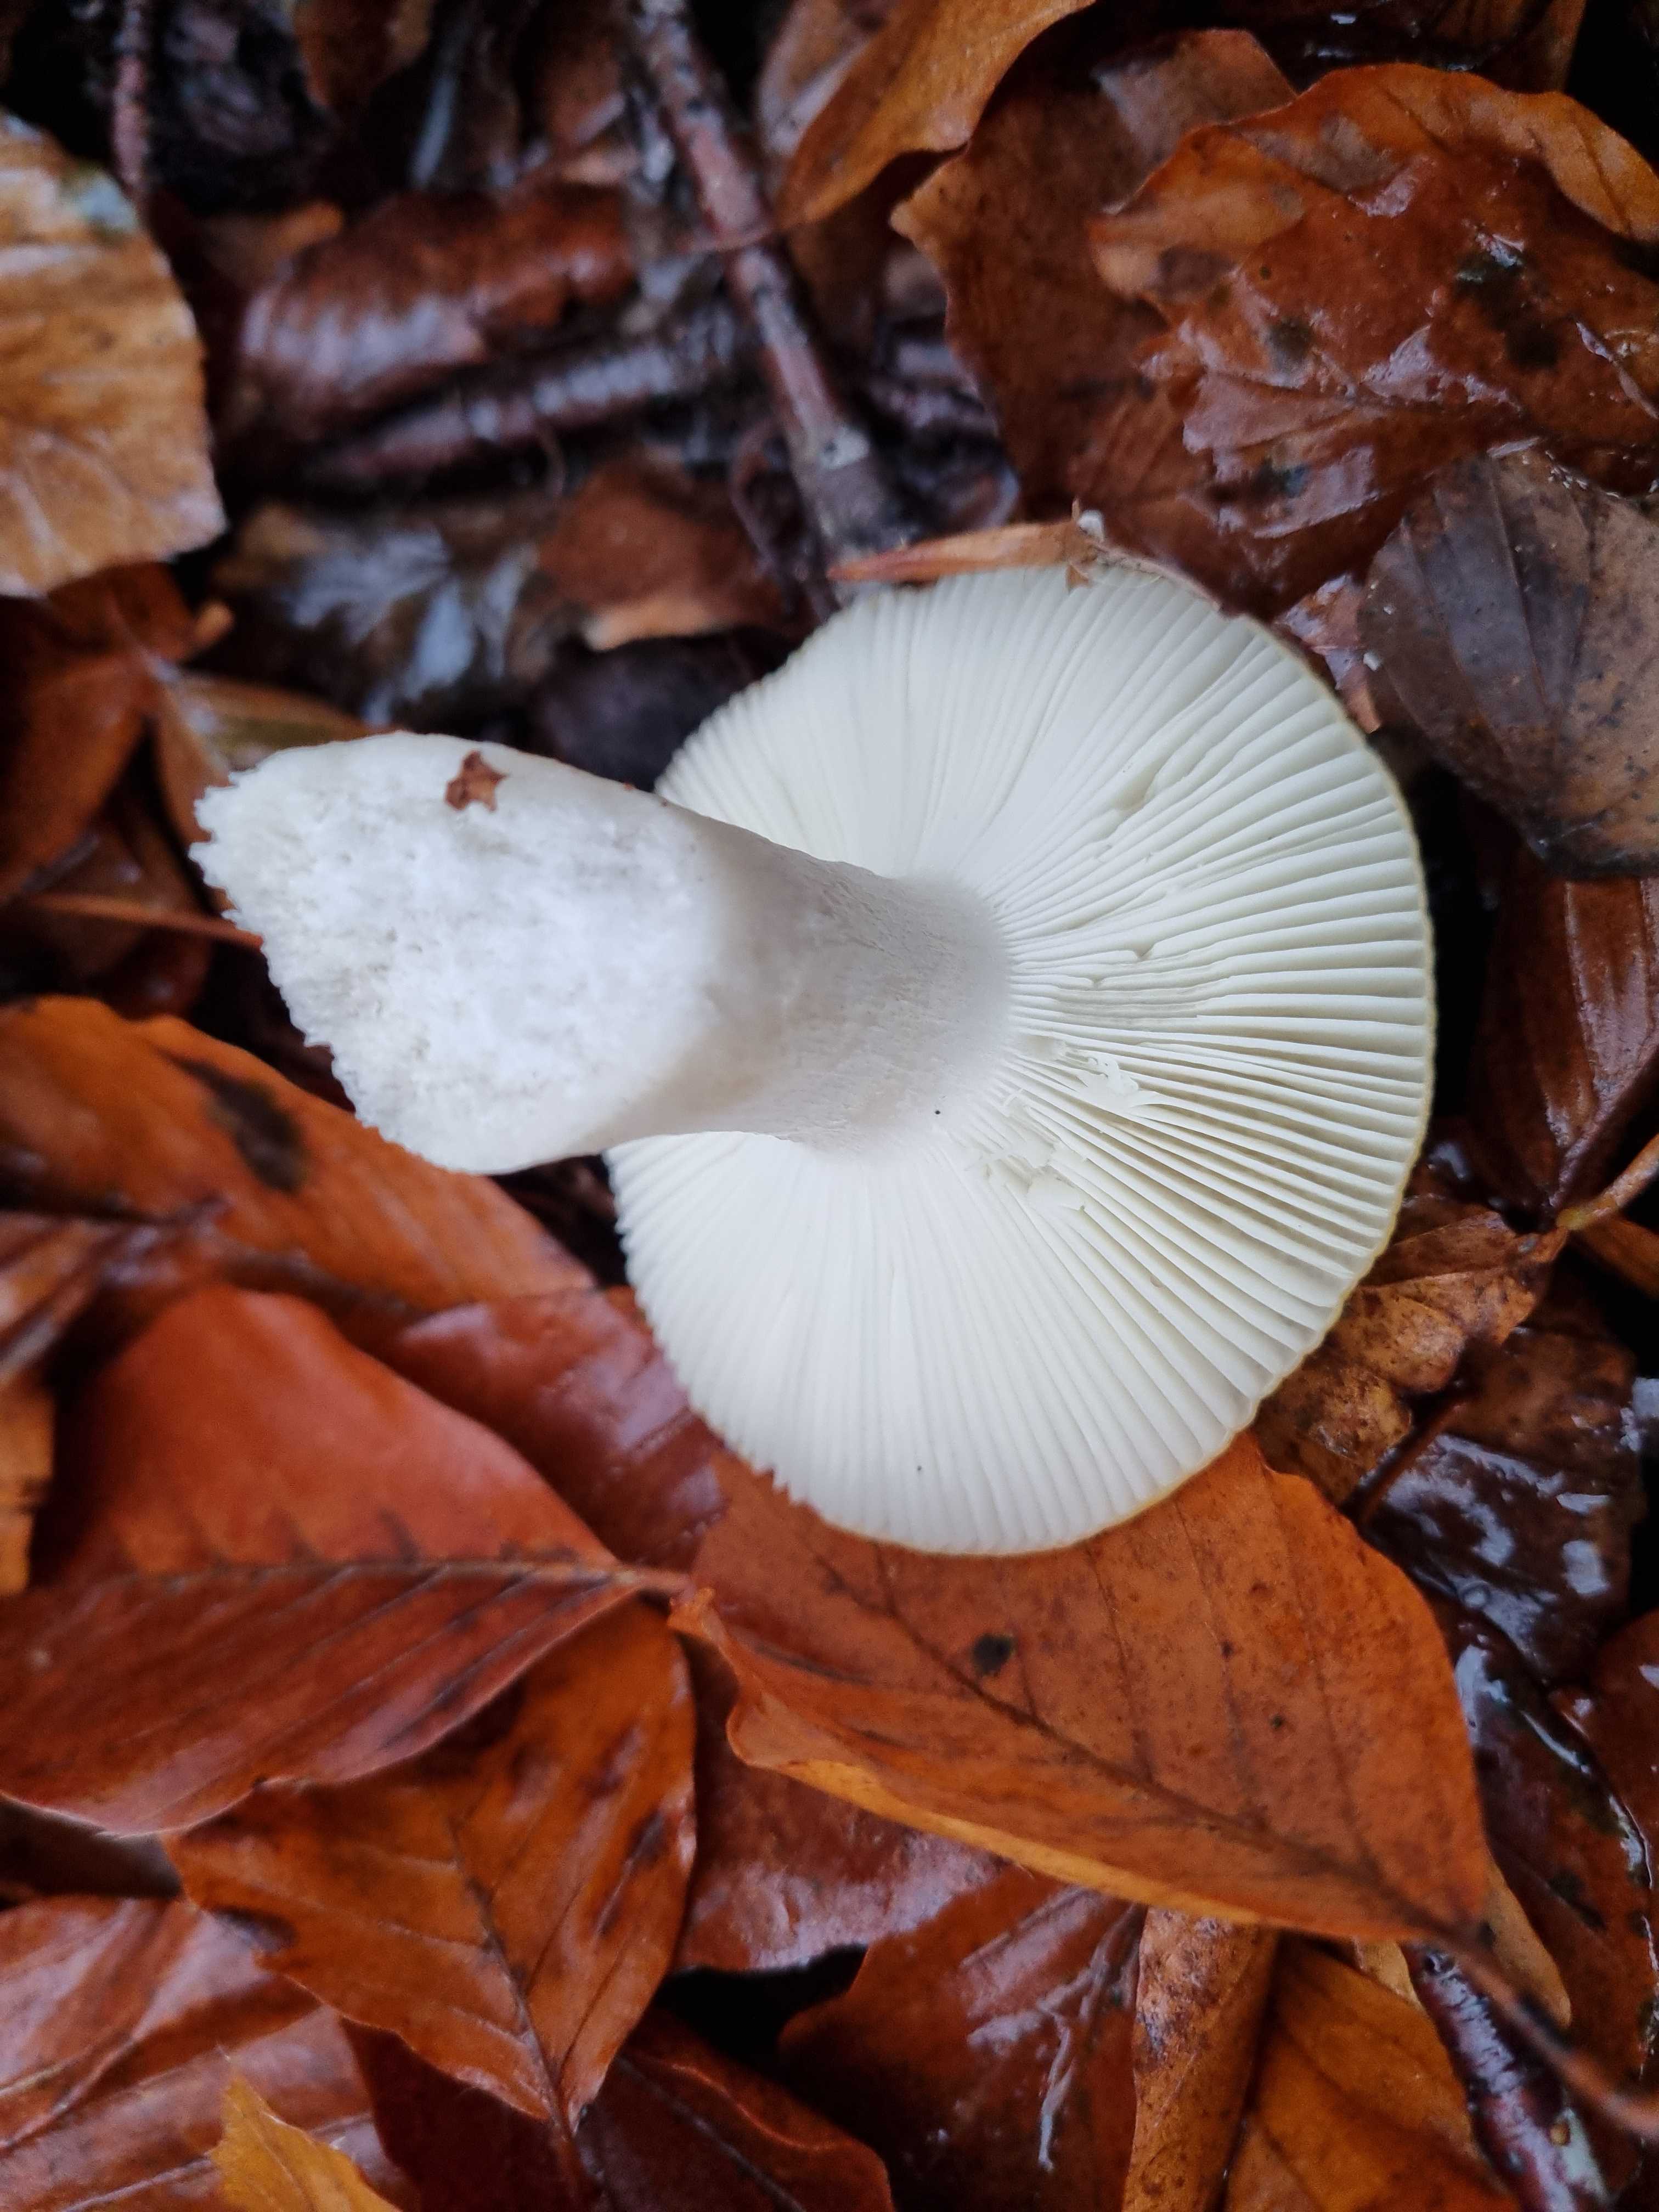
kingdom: Fungi
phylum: Basidiomycota
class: Agaricomycetes
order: Russulales
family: Russulaceae
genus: Russula
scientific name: Russula ochroleuca
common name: okkergul skørhat
